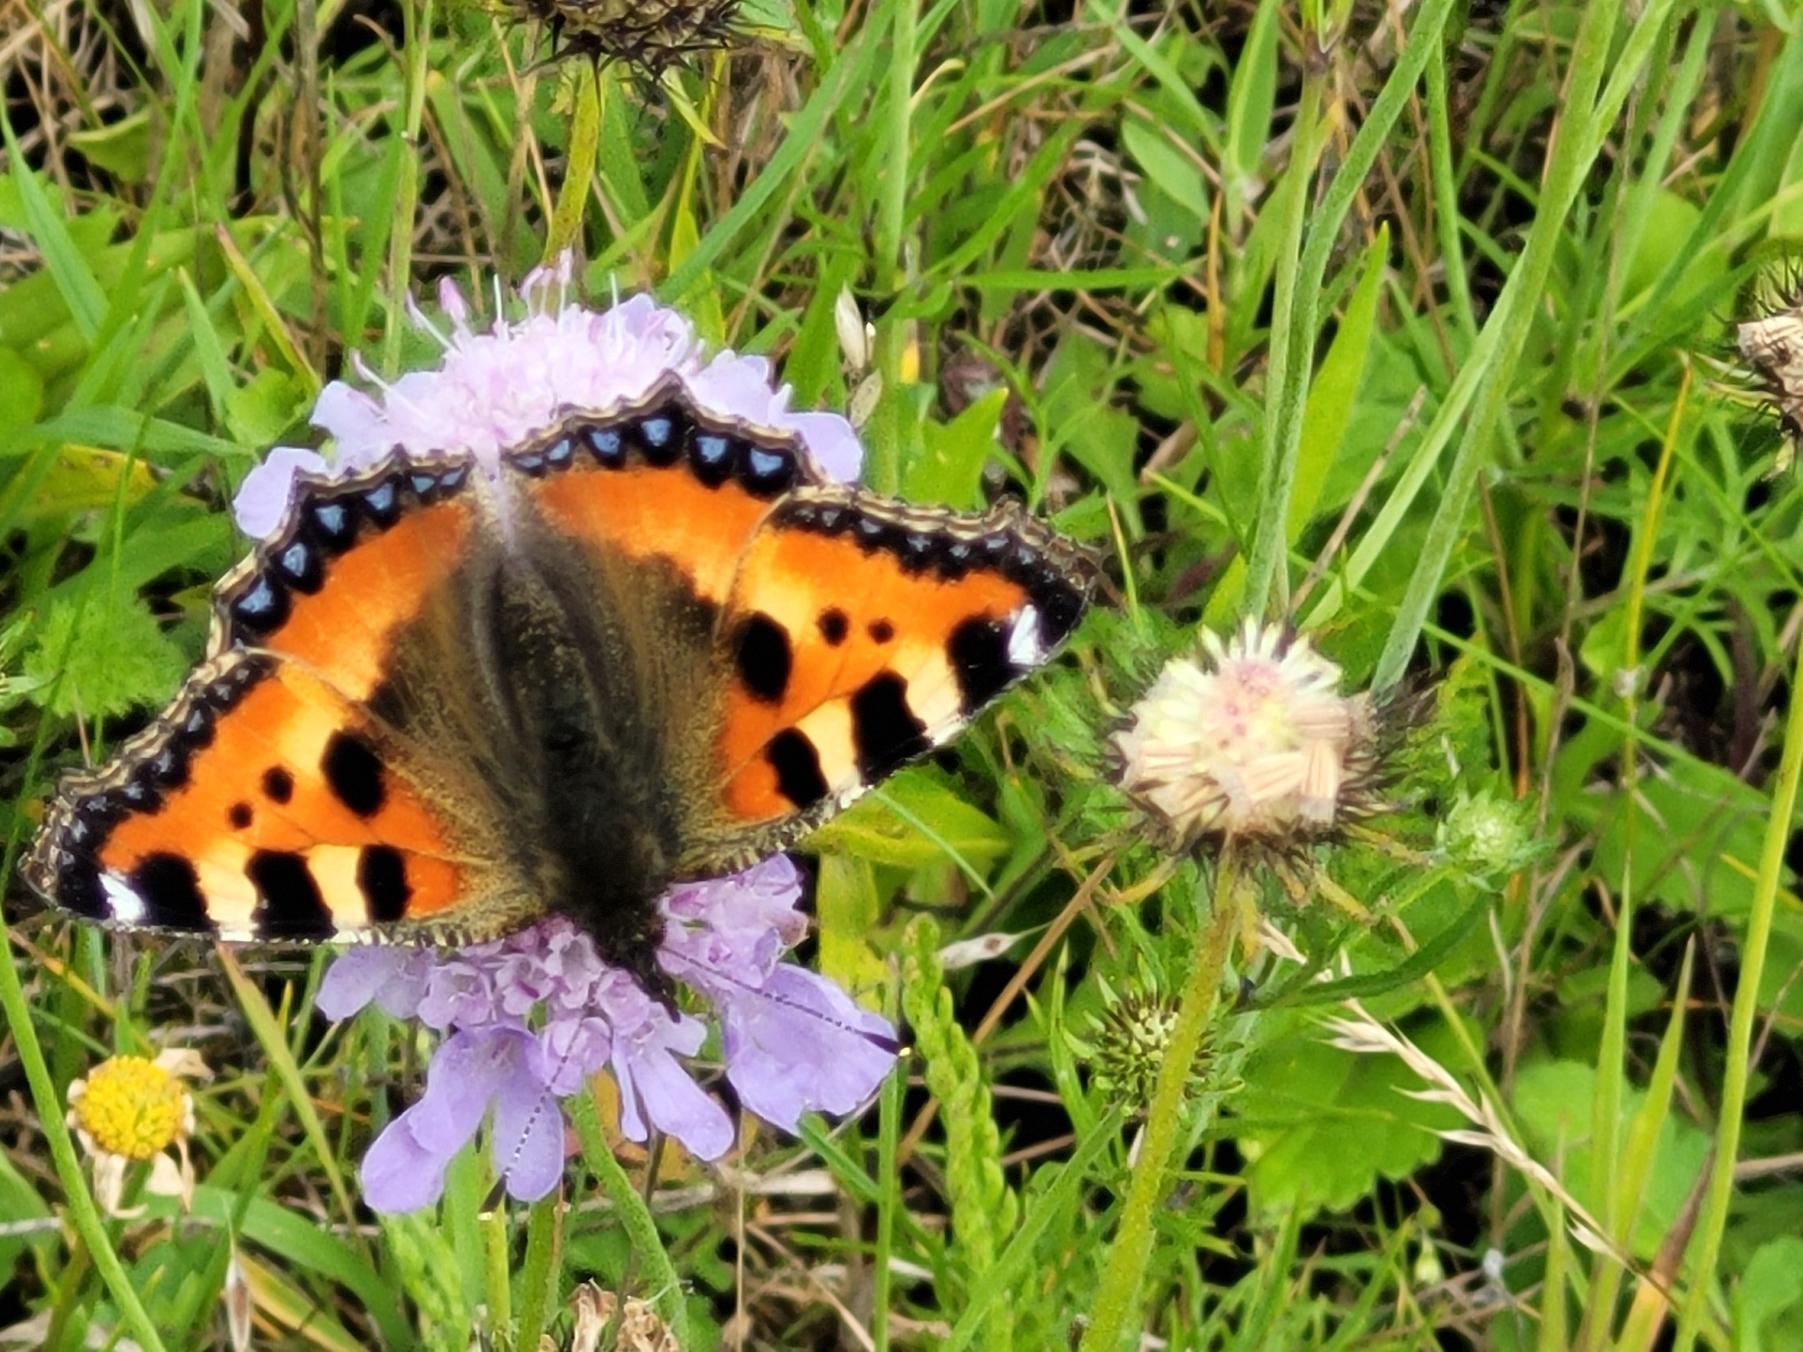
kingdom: Animalia
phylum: Arthropoda
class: Insecta
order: Lepidoptera
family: Nymphalidae
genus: Aglais
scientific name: Aglais urticae
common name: Nældens takvinge
